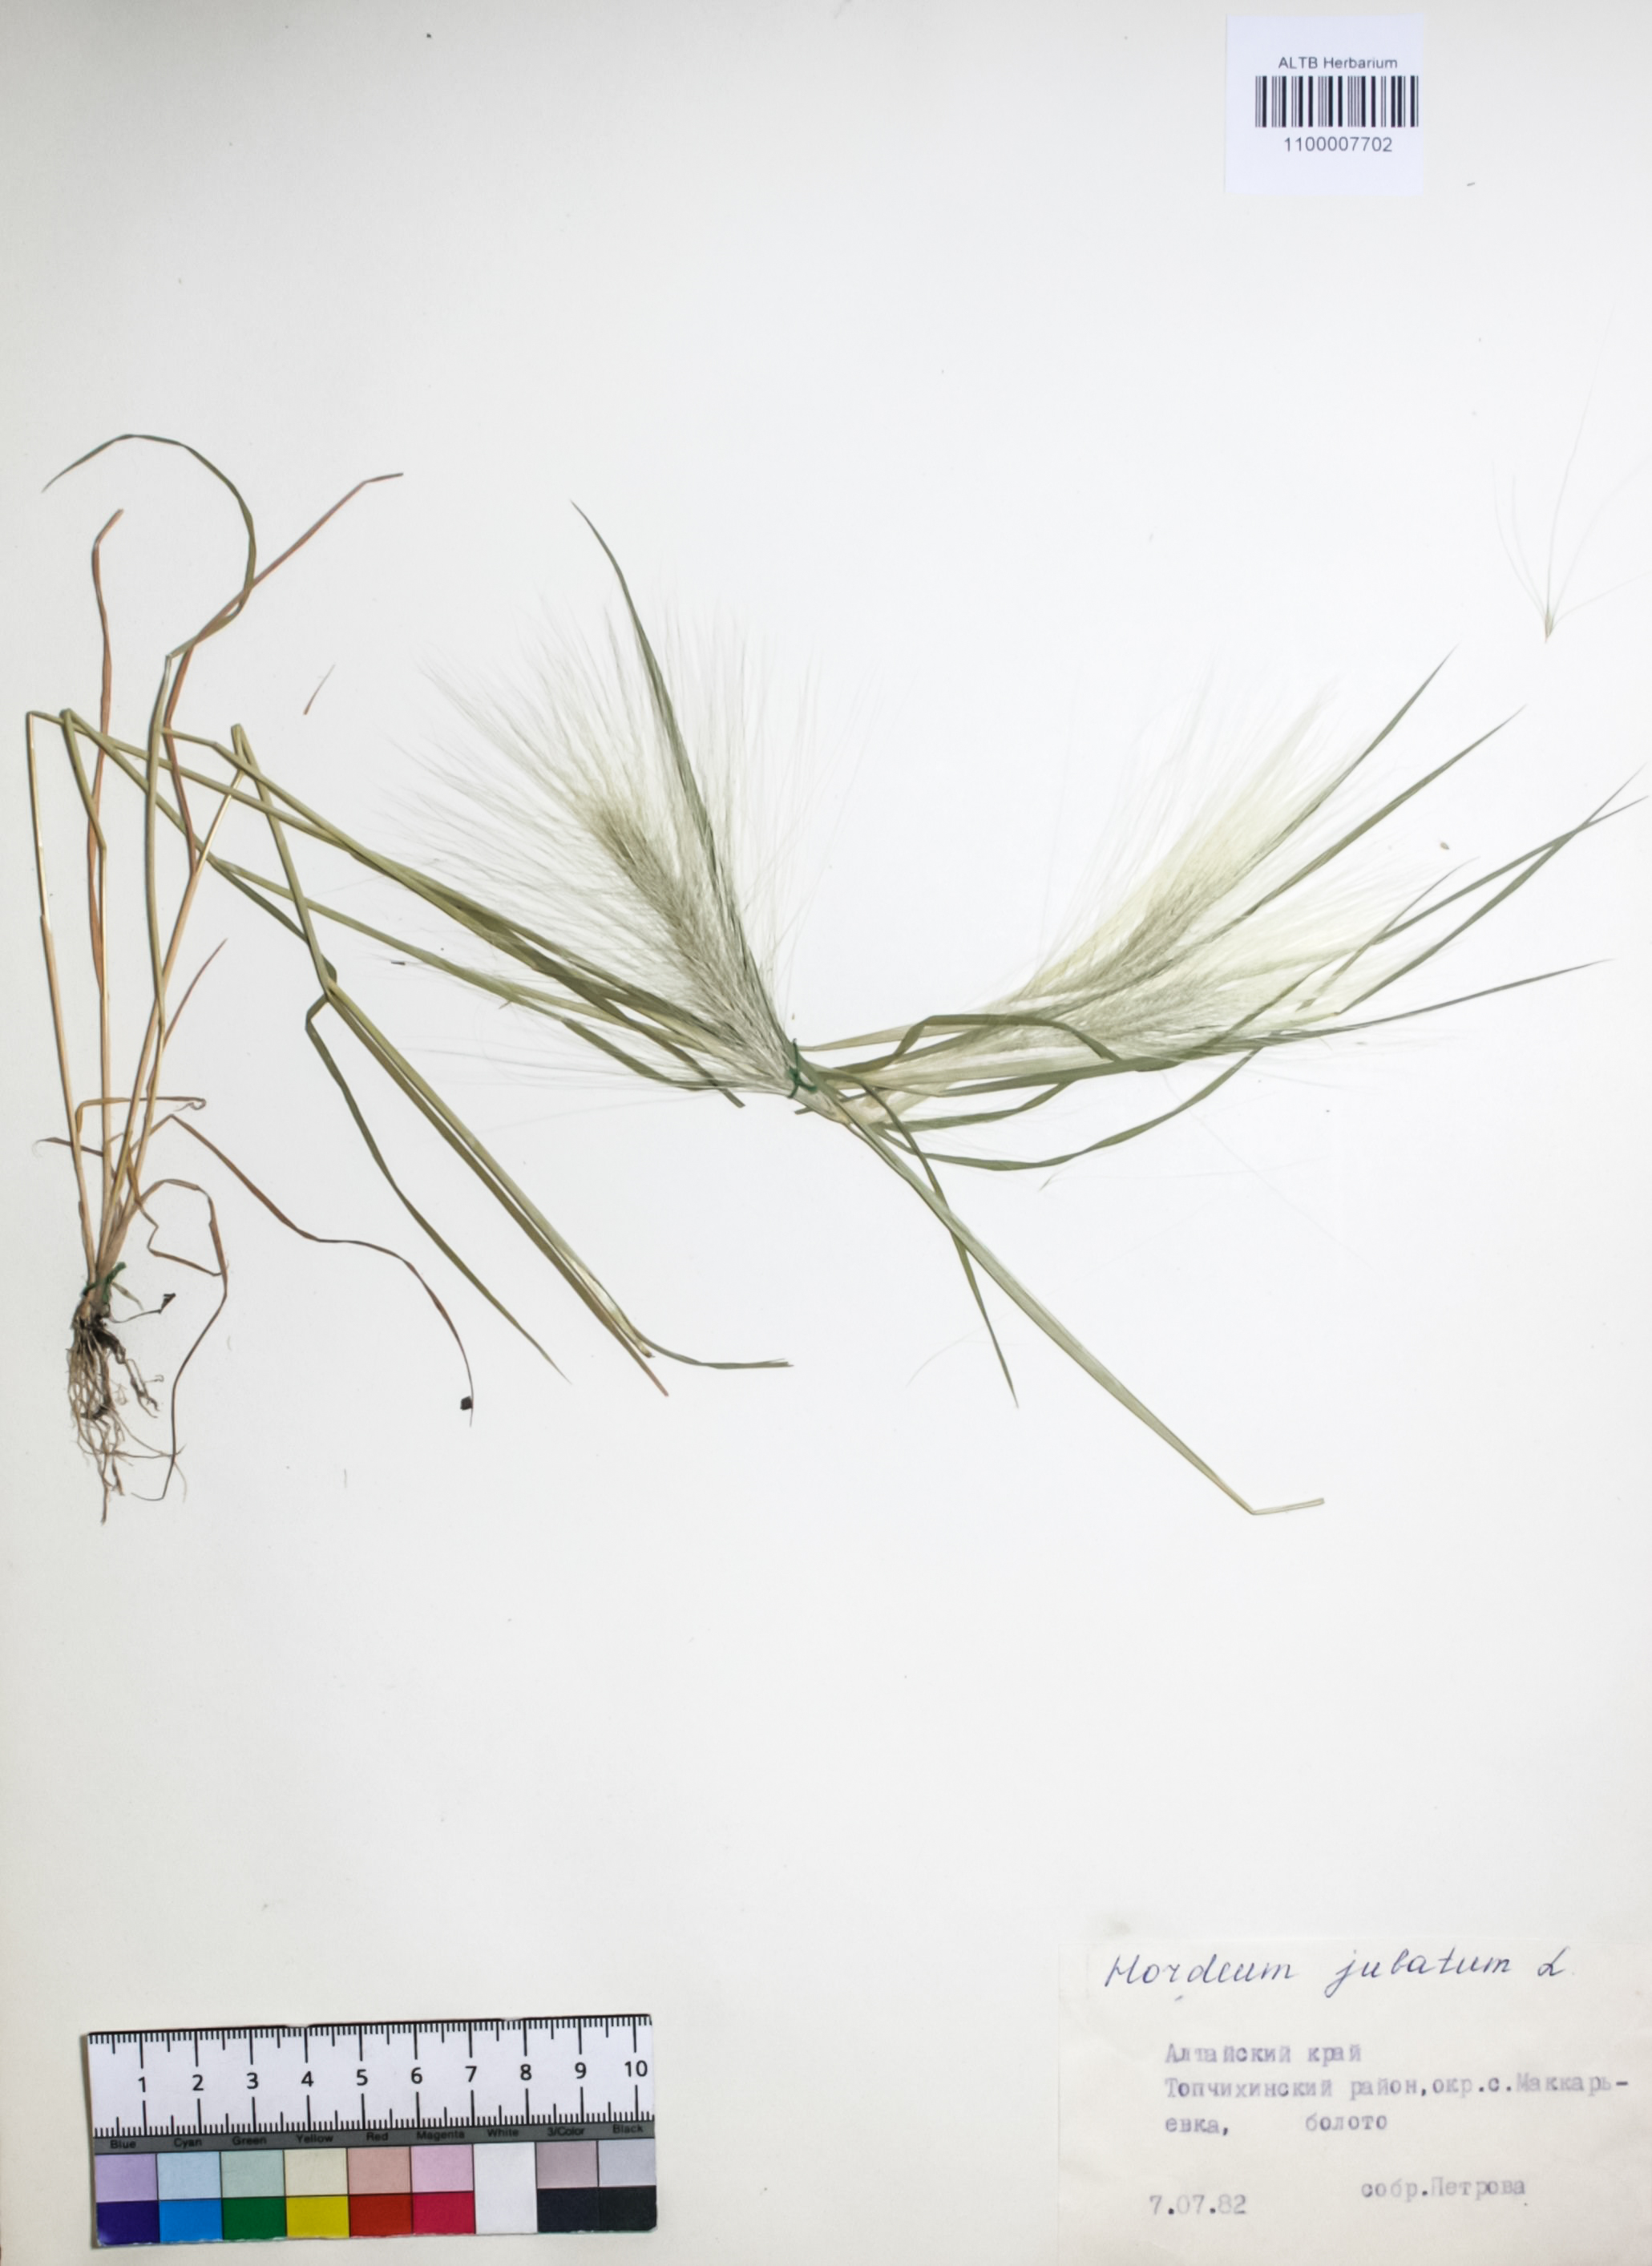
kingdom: Plantae
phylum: Tracheophyta
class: Liliopsida
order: Poales
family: Poaceae
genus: Hordeum
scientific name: Hordeum jubatum
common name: Foxtail barley
